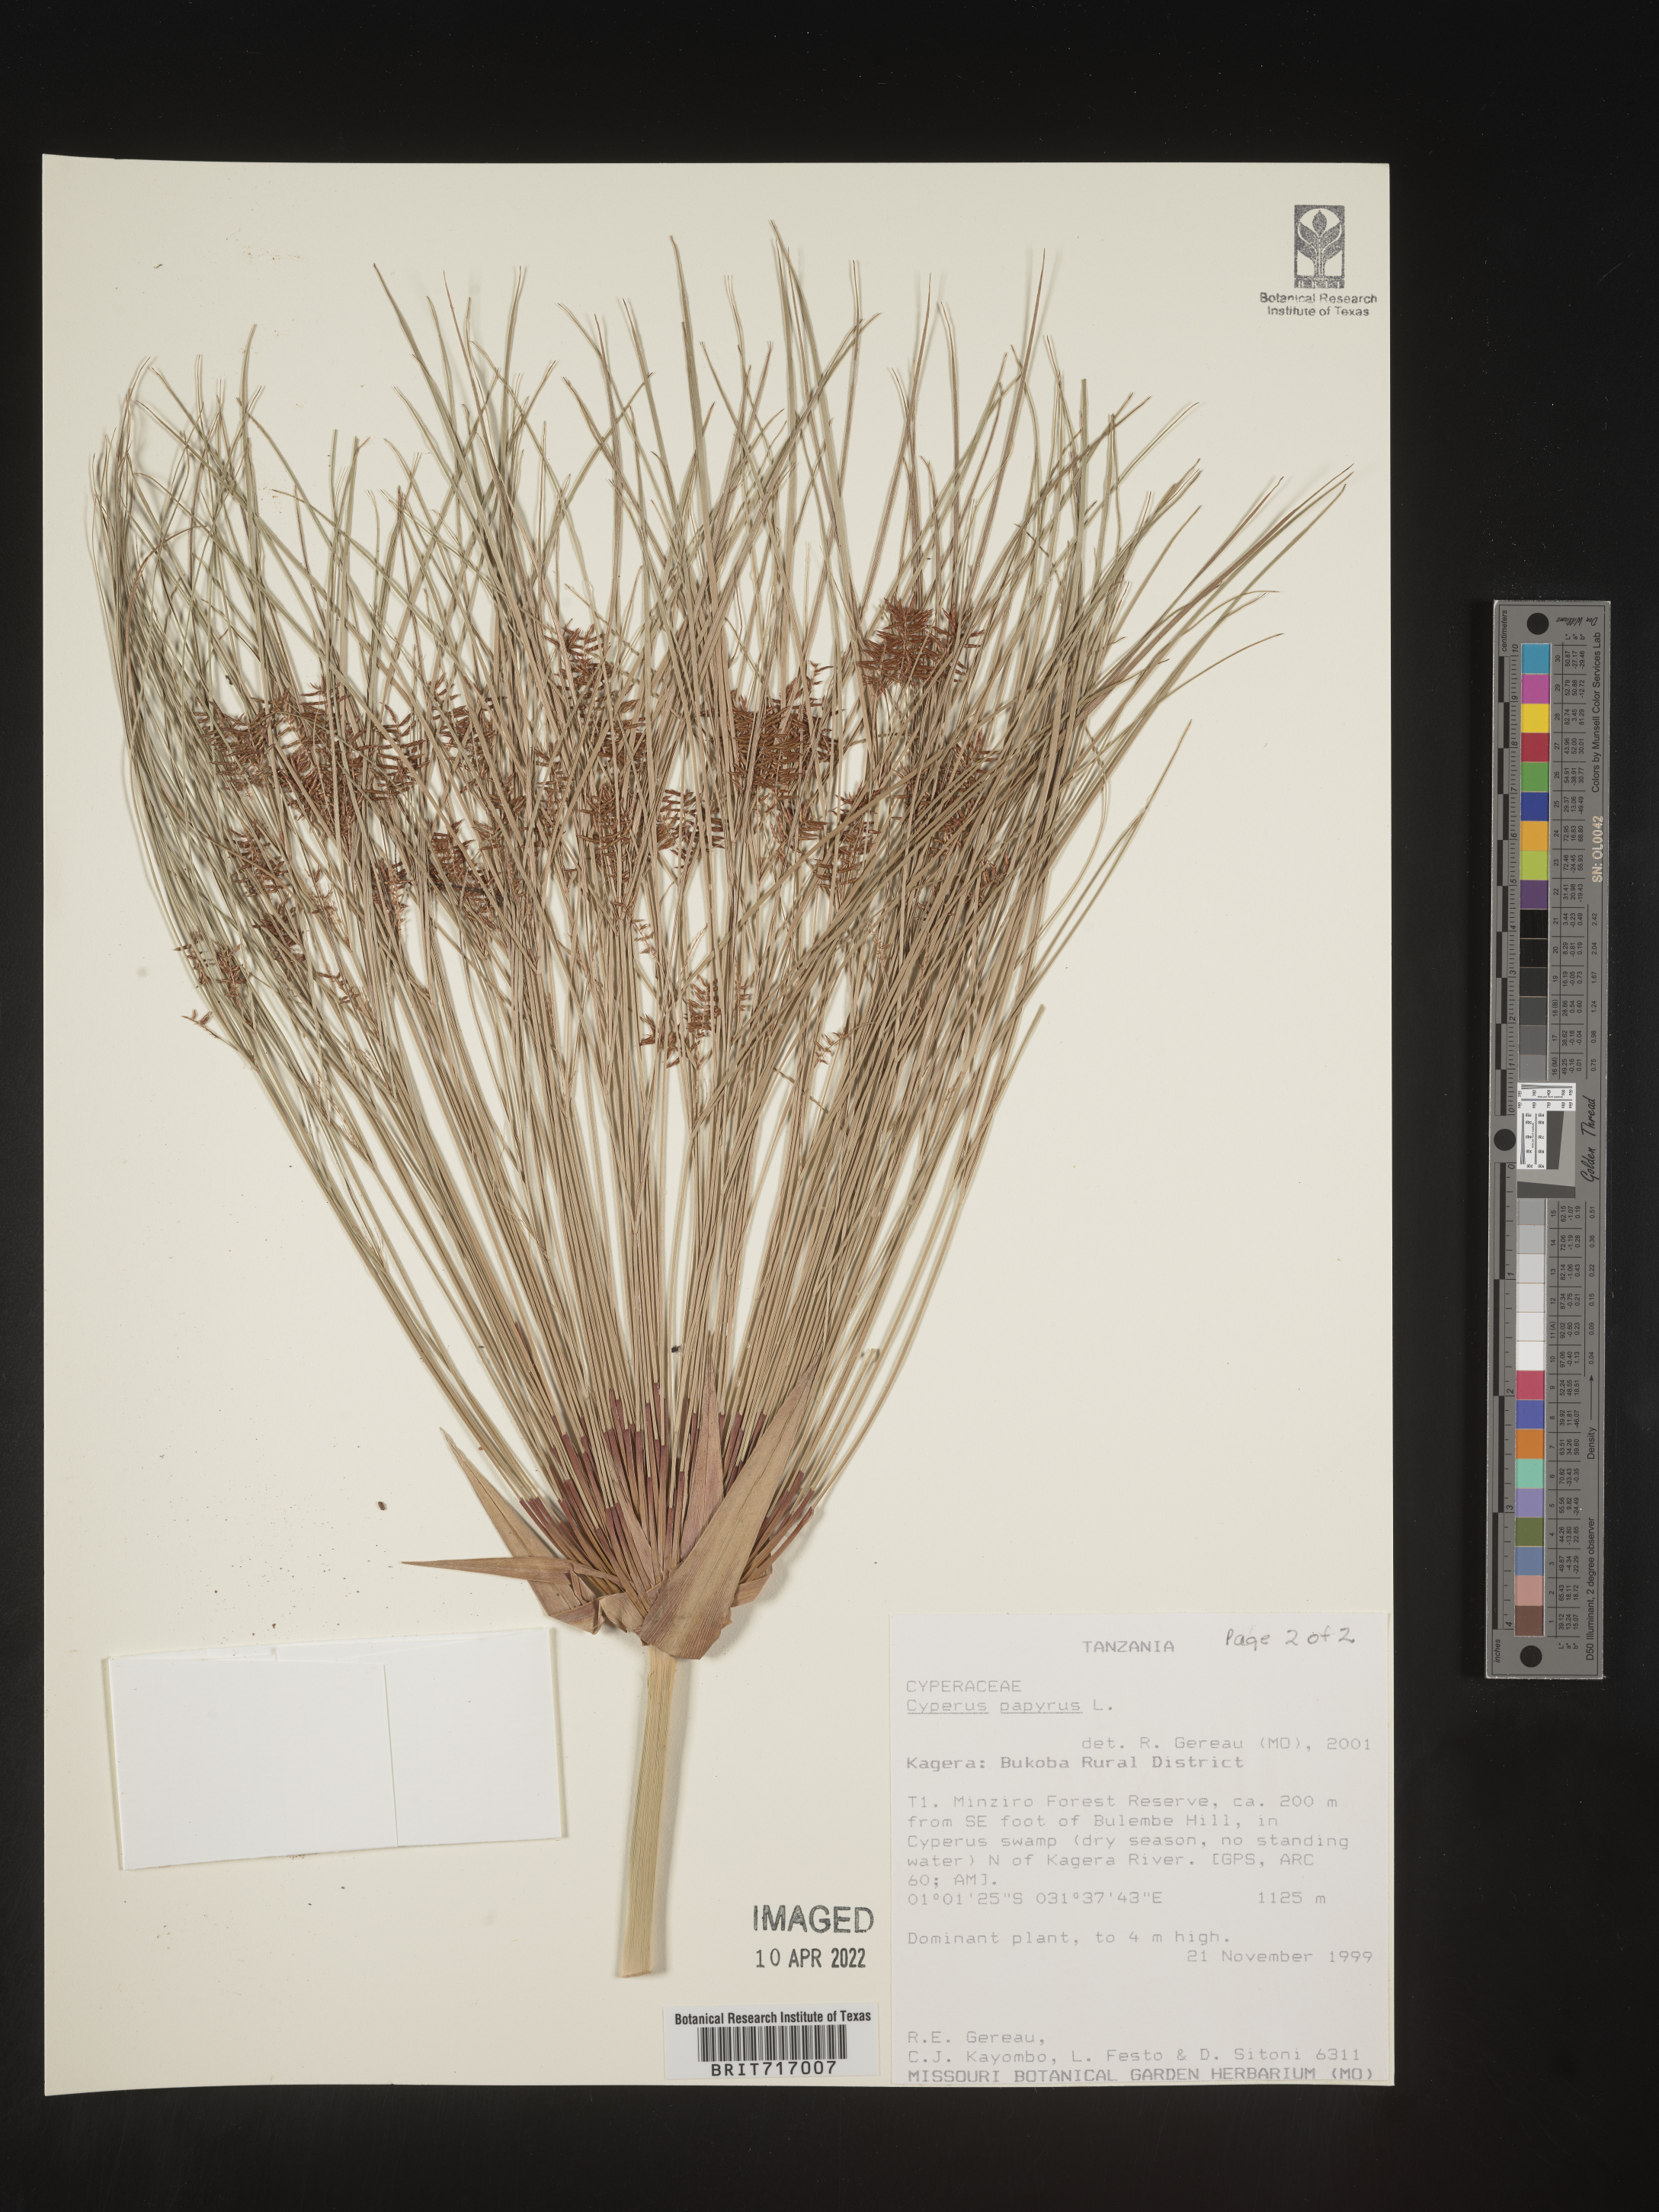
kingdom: Plantae
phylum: Tracheophyta
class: Liliopsida
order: Poales
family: Cyperaceae
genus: Cyperus
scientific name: Cyperus
